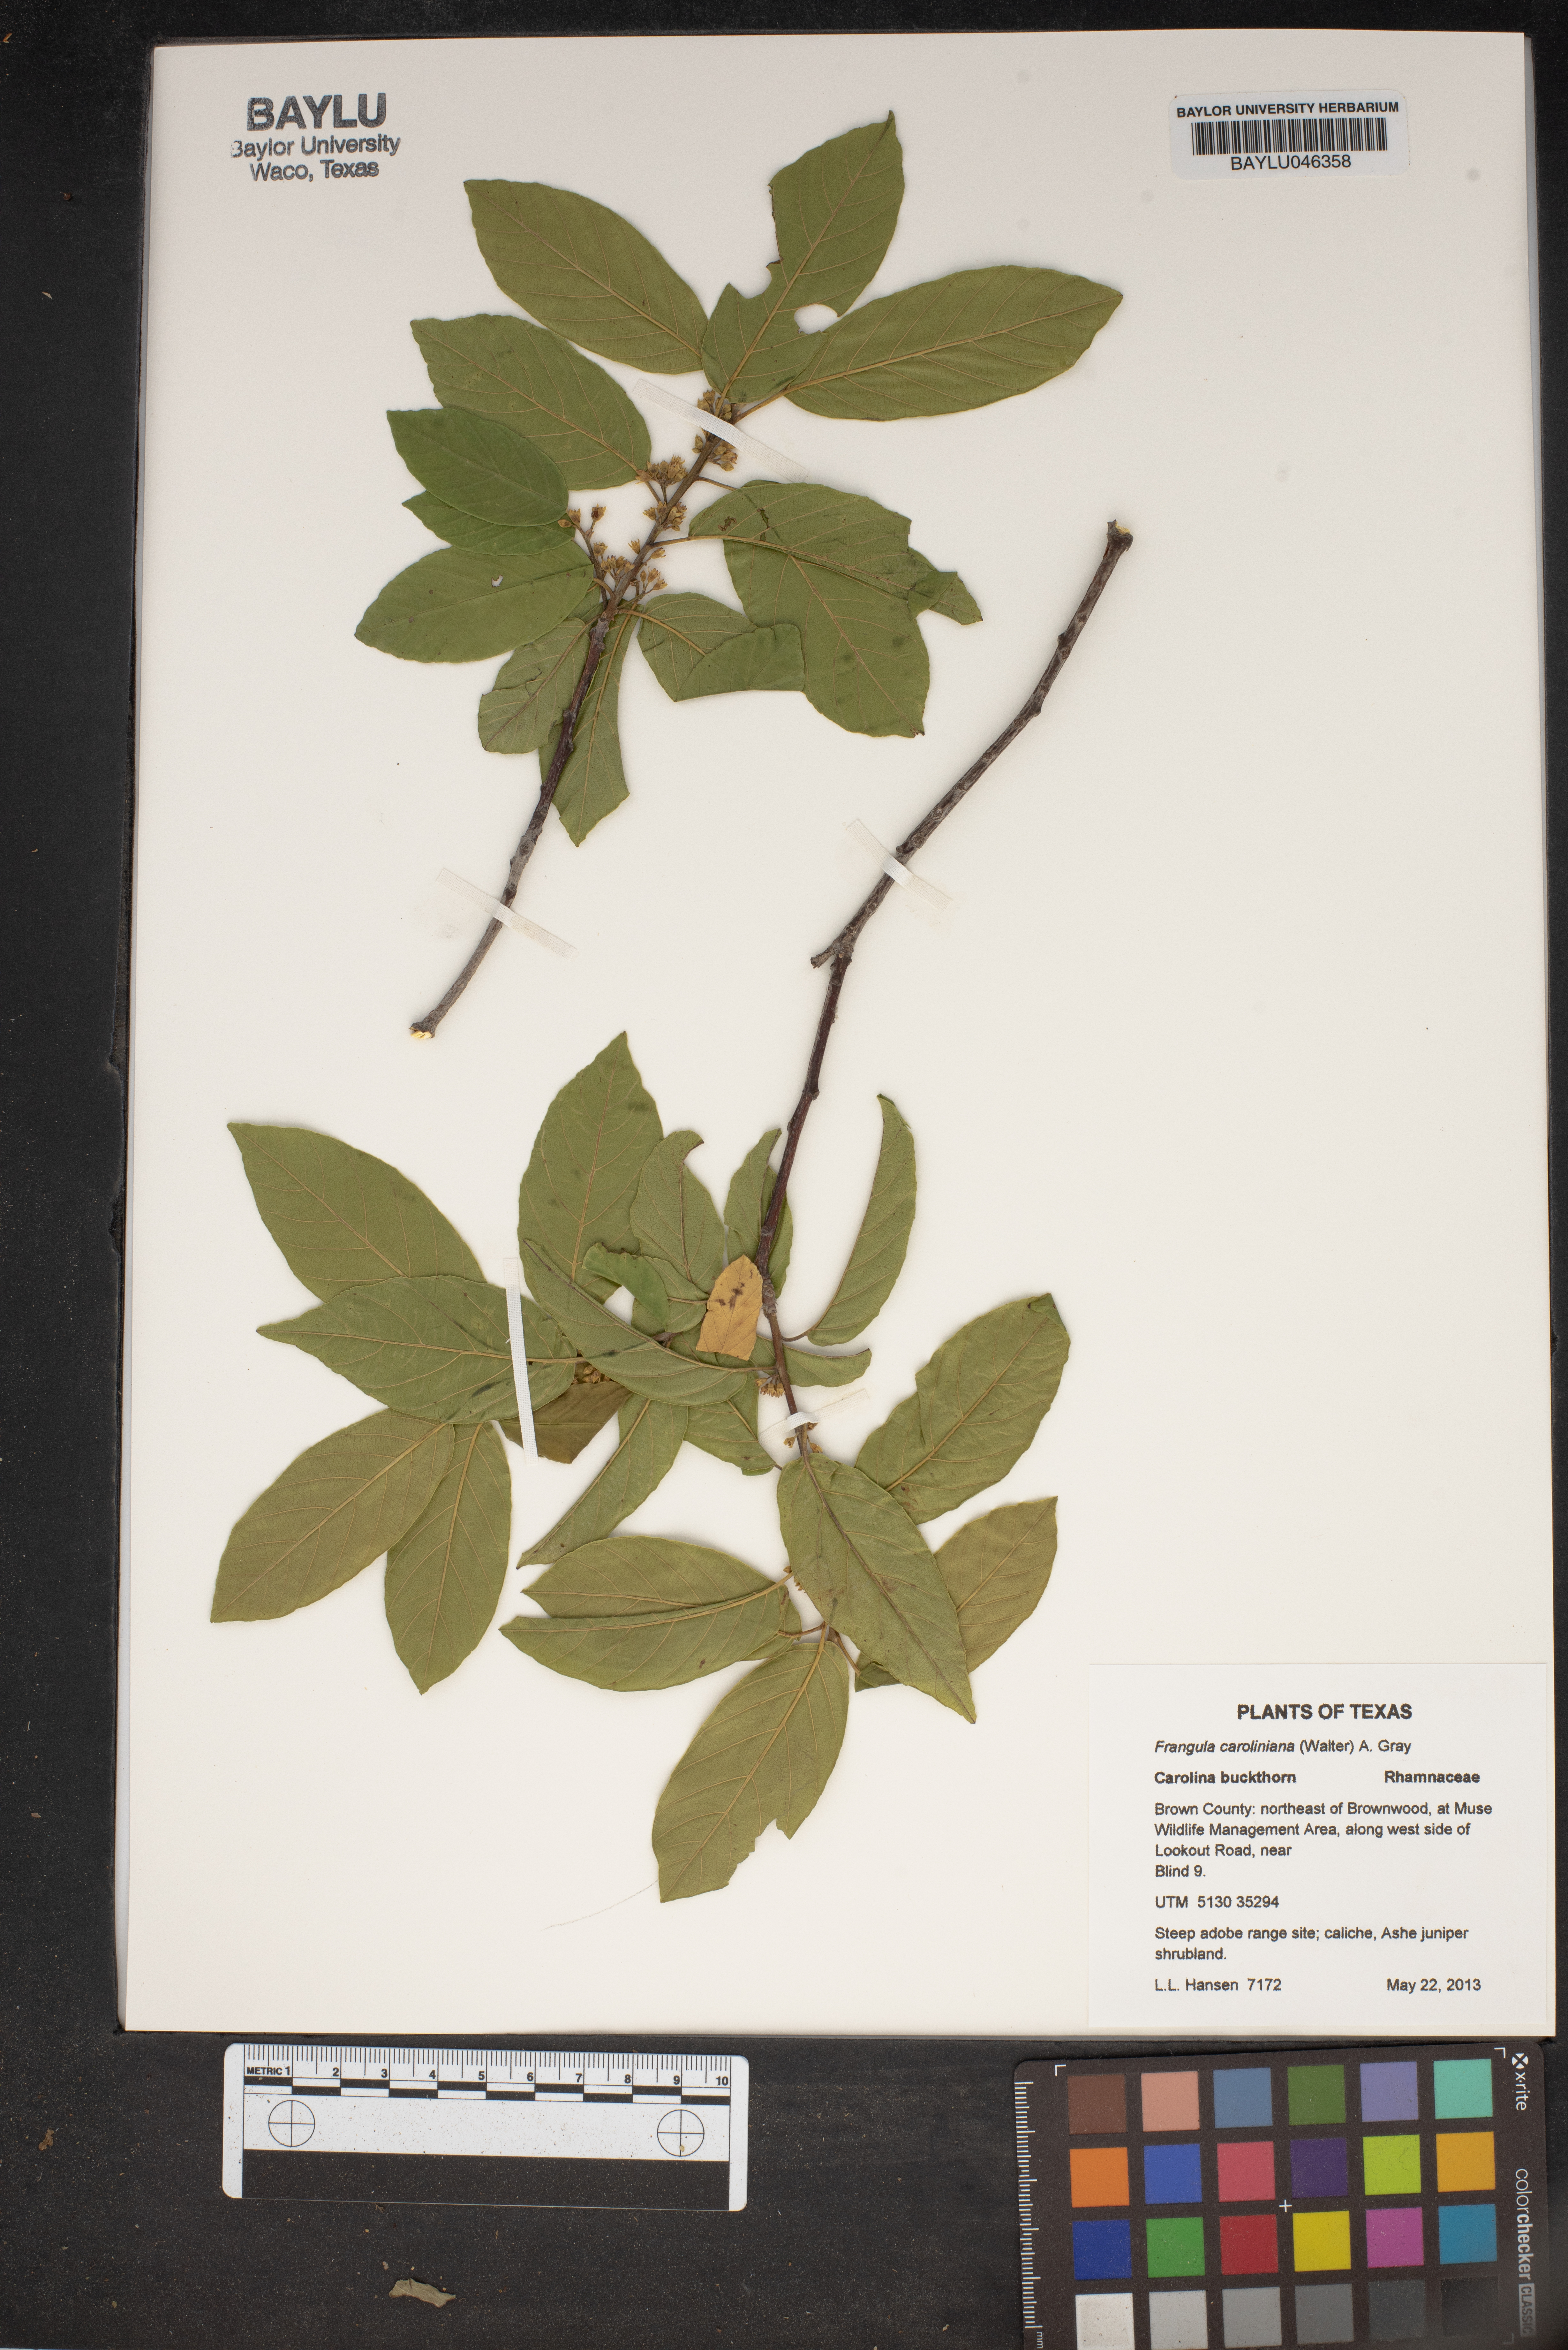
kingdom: Plantae
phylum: Tracheophyta
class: Magnoliopsida
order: Rosales
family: Rhamnaceae
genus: Frangula
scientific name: Frangula caroliniana
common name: Carolina buckthorn
